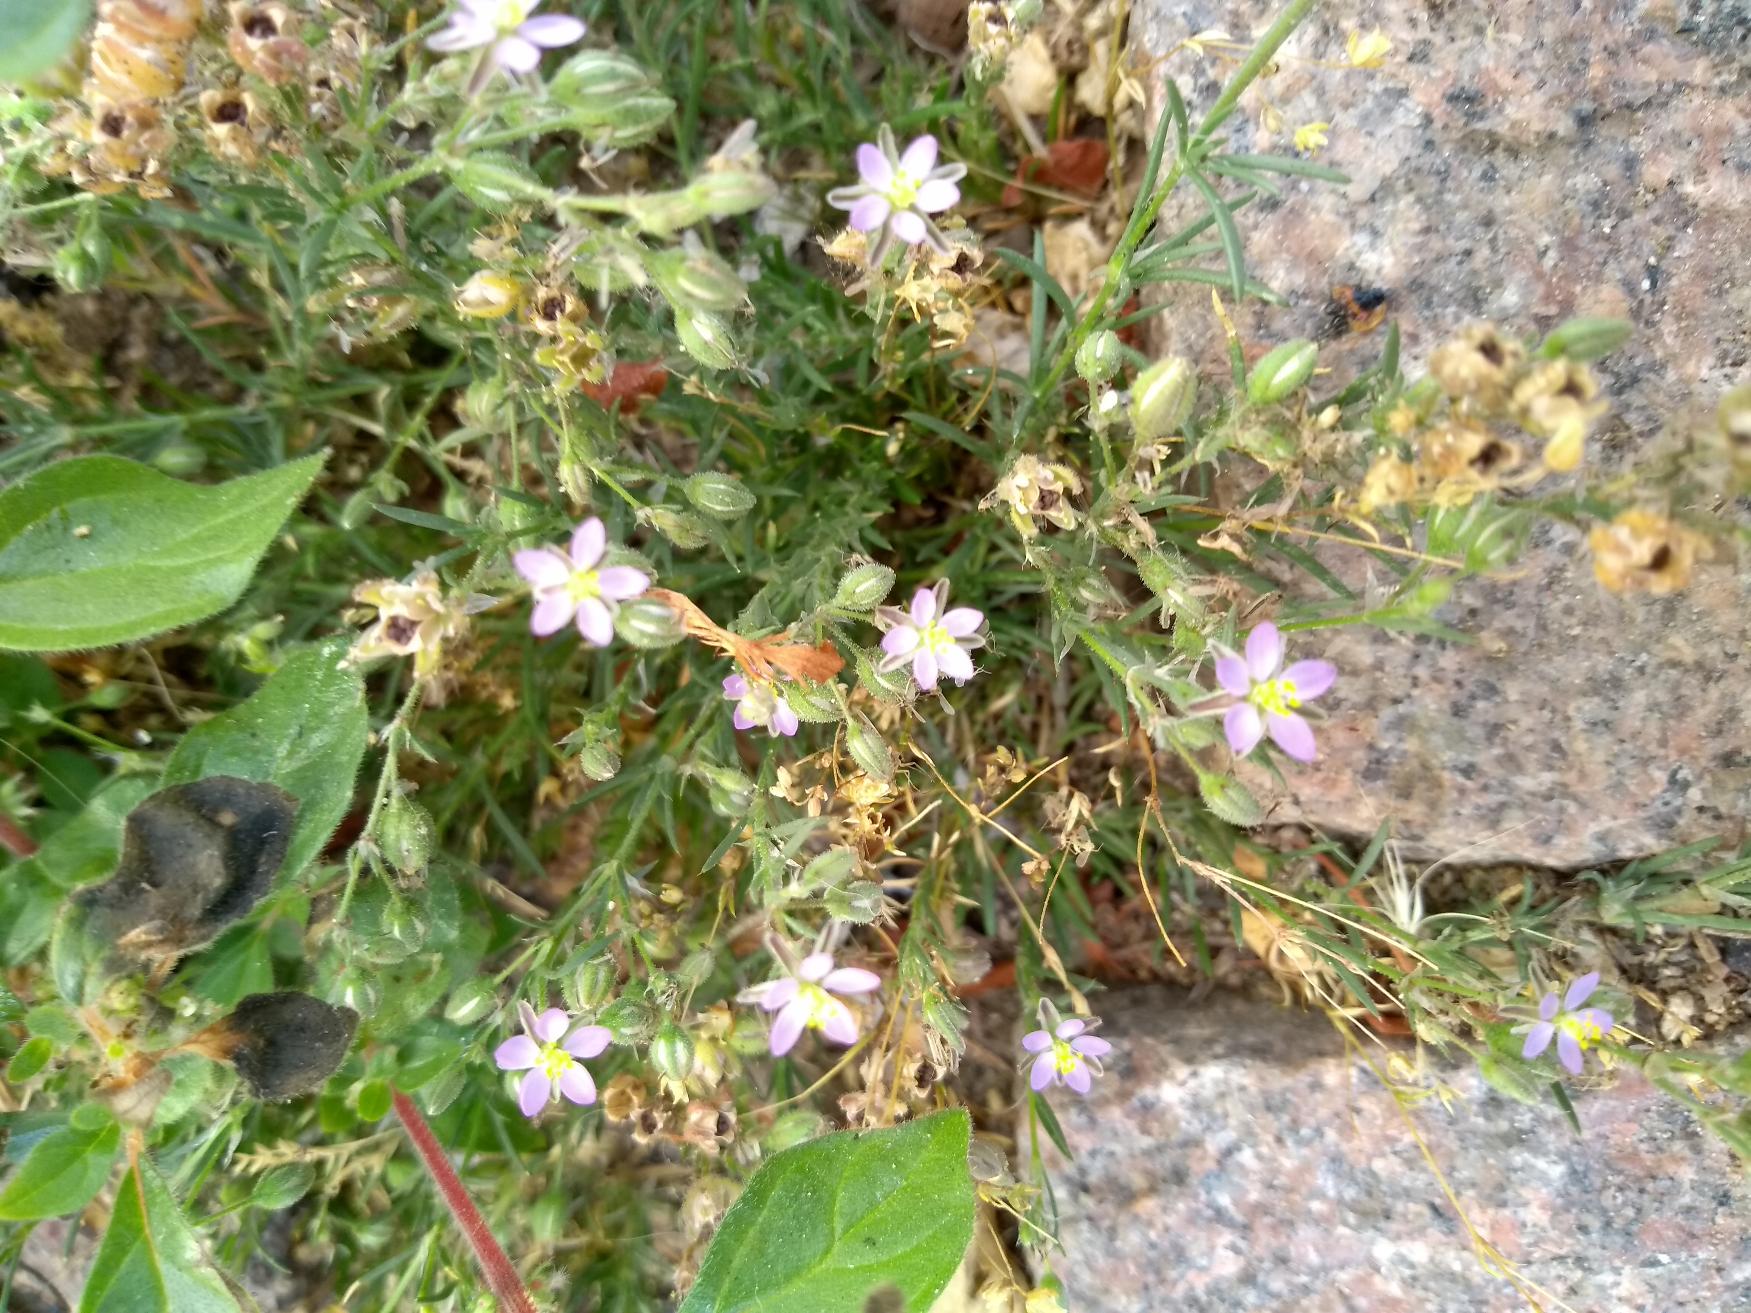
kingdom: Plantae
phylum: Tracheophyta
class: Magnoliopsida
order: Caryophyllales
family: Caryophyllaceae
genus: Spergularia
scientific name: Spergularia rubra
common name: Mark-hindeknæ
